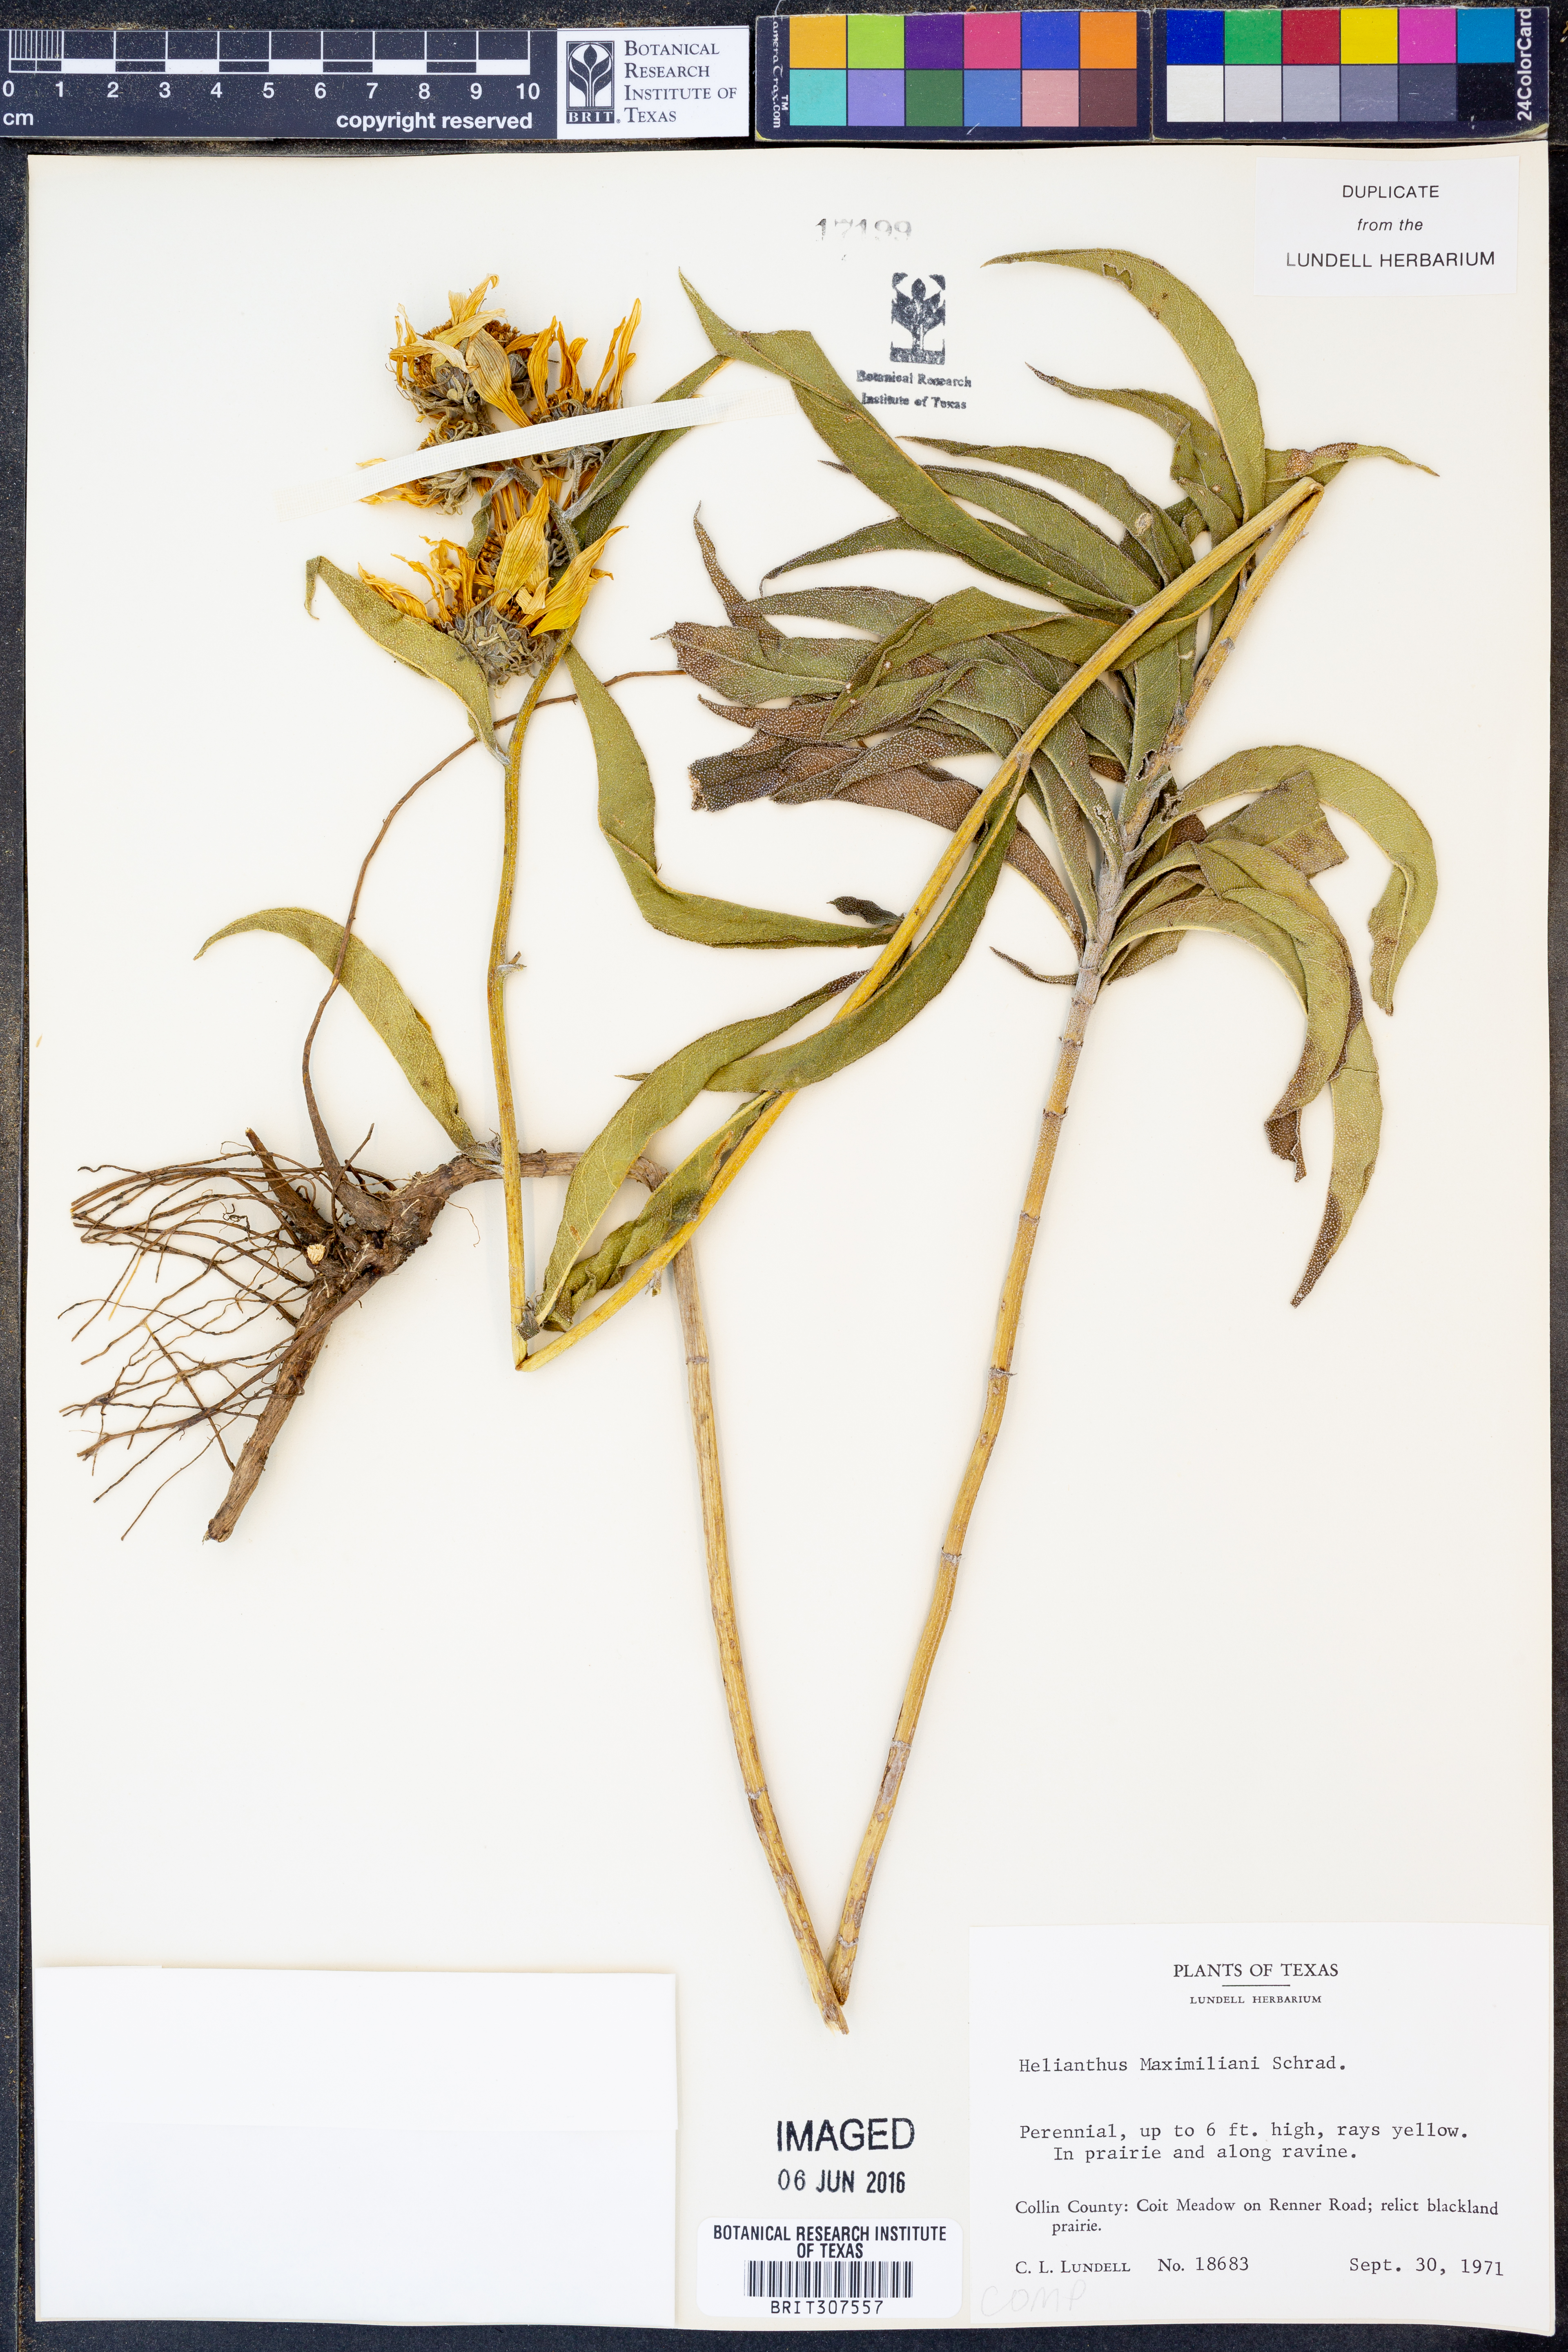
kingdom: Plantae
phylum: Tracheophyta
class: Magnoliopsida
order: Asterales
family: Asteraceae
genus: Helianthus
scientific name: Helianthus maximiliani
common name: Maximilian's sunflower
